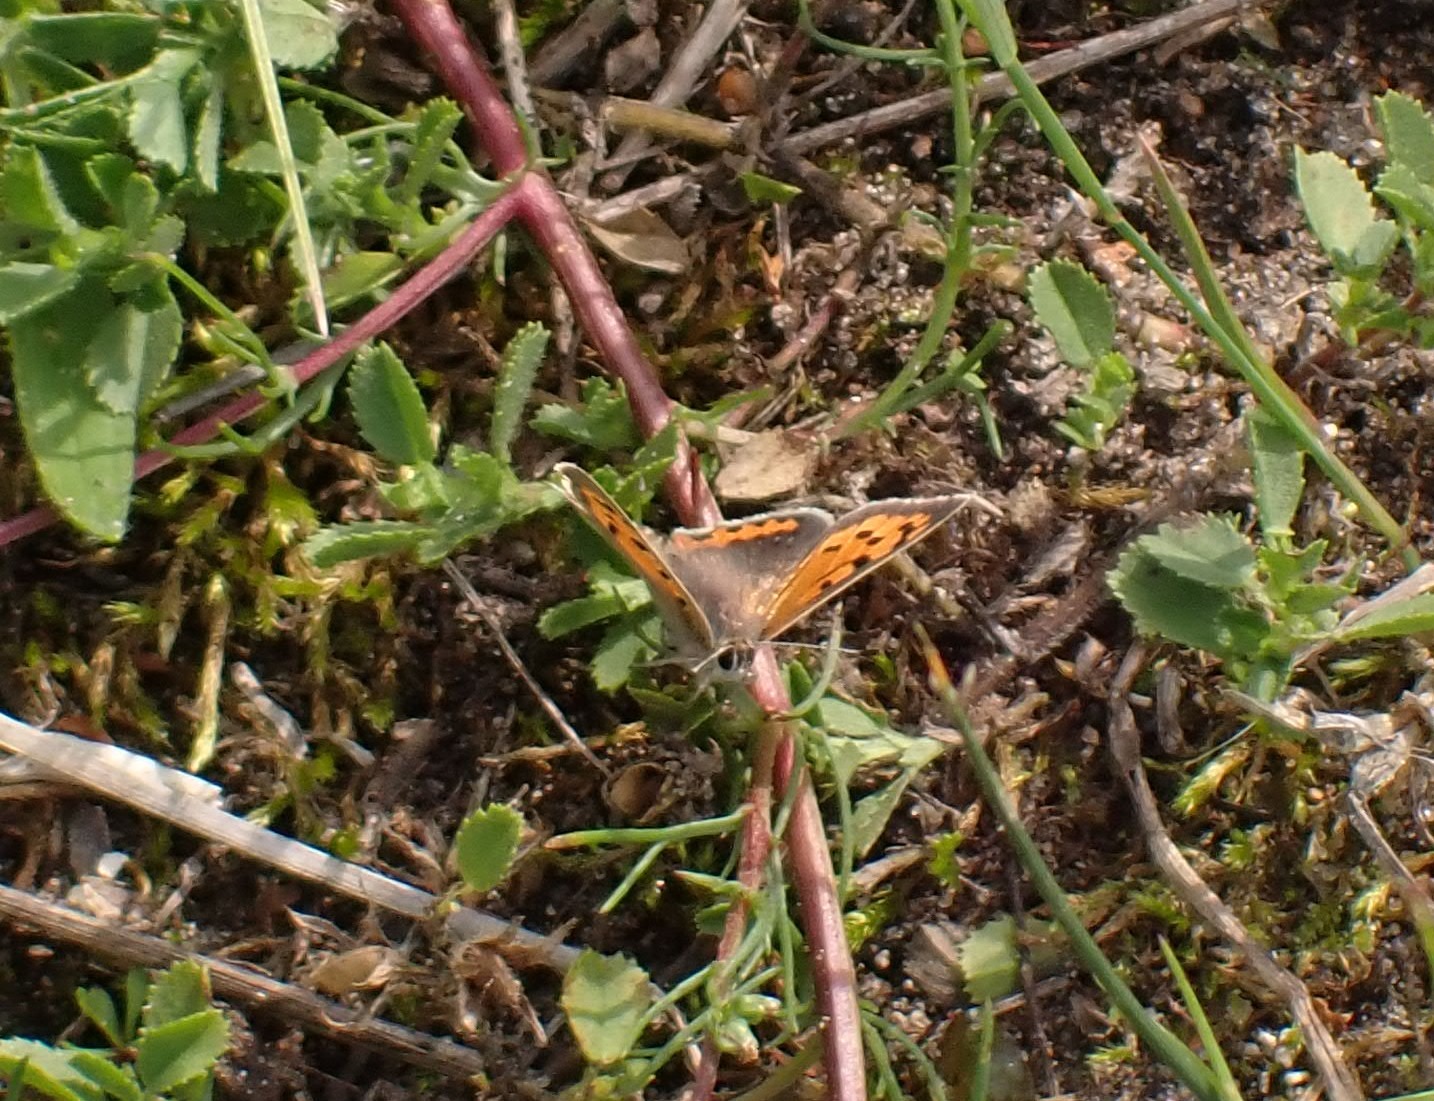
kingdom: Animalia
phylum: Arthropoda
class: Insecta
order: Lepidoptera
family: Lycaenidae
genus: Lycaena
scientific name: Lycaena phlaeas
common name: Lille ildfugl
